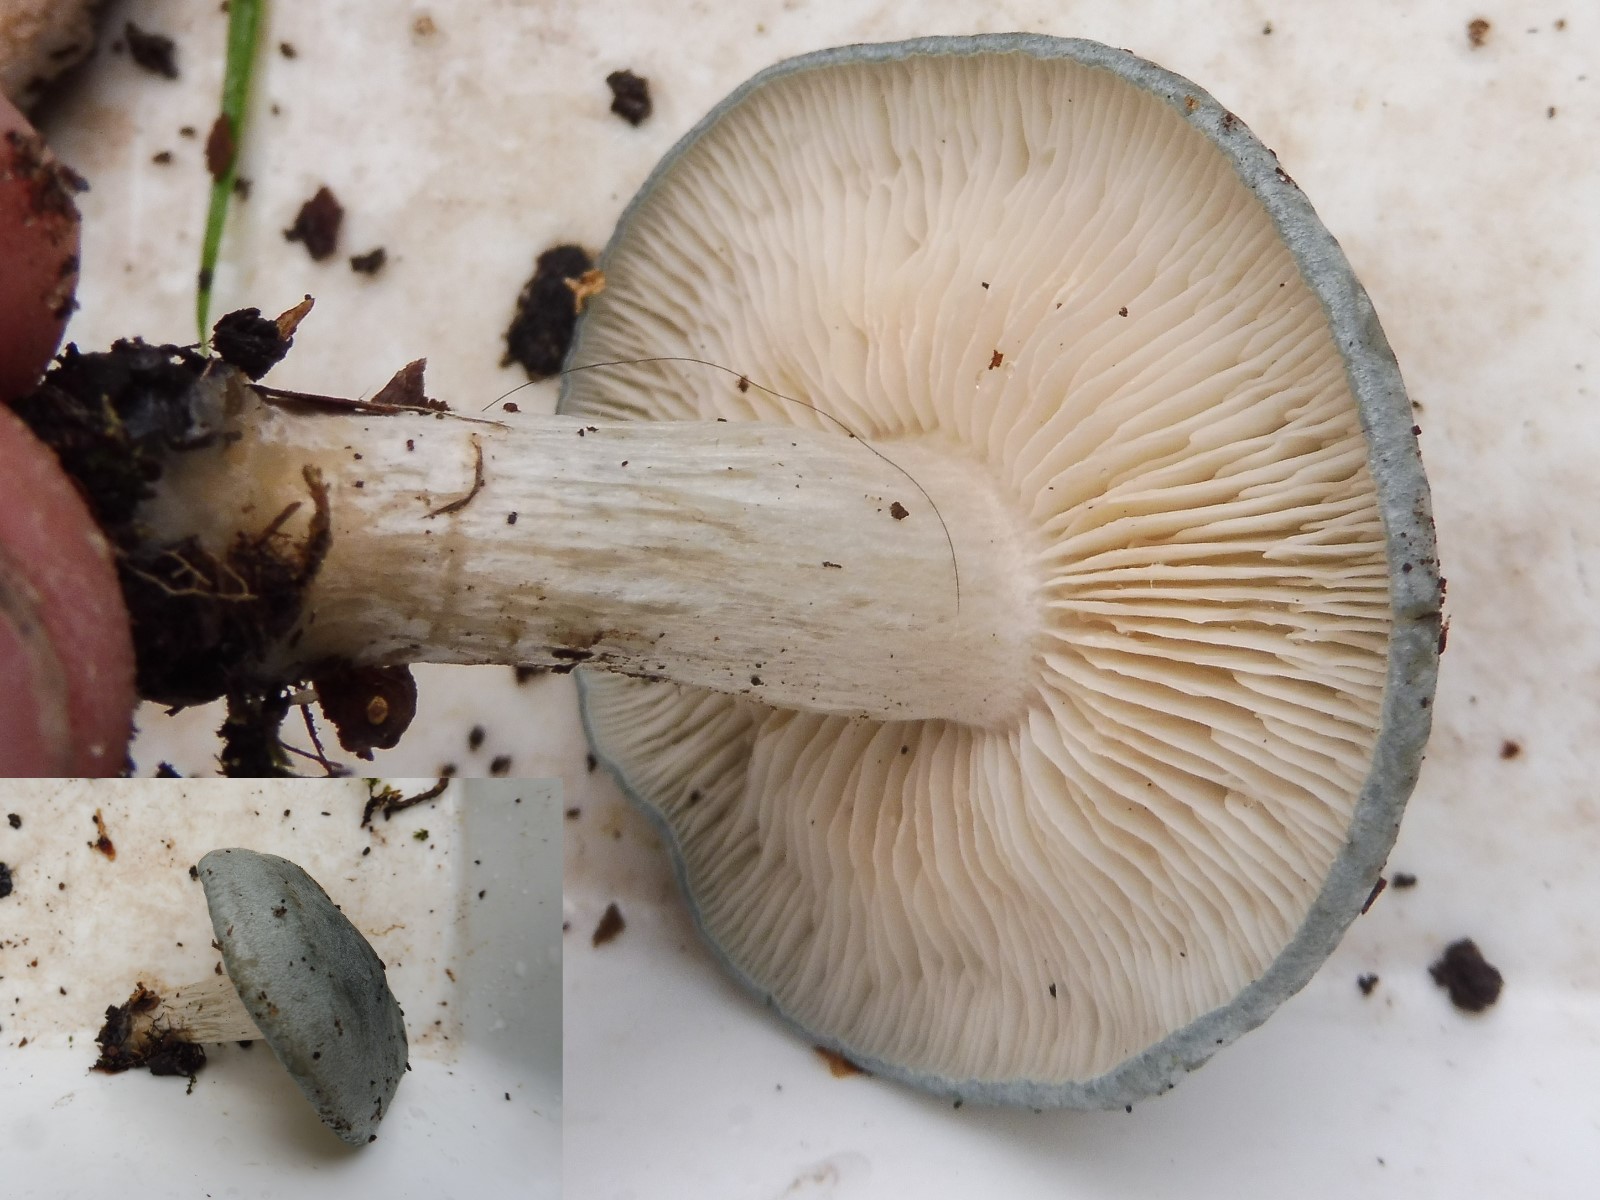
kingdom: Fungi
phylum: Basidiomycota
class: Agaricomycetes
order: Agaricales
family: Tricholomataceae
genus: Clitocybe
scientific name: Clitocybe odora
